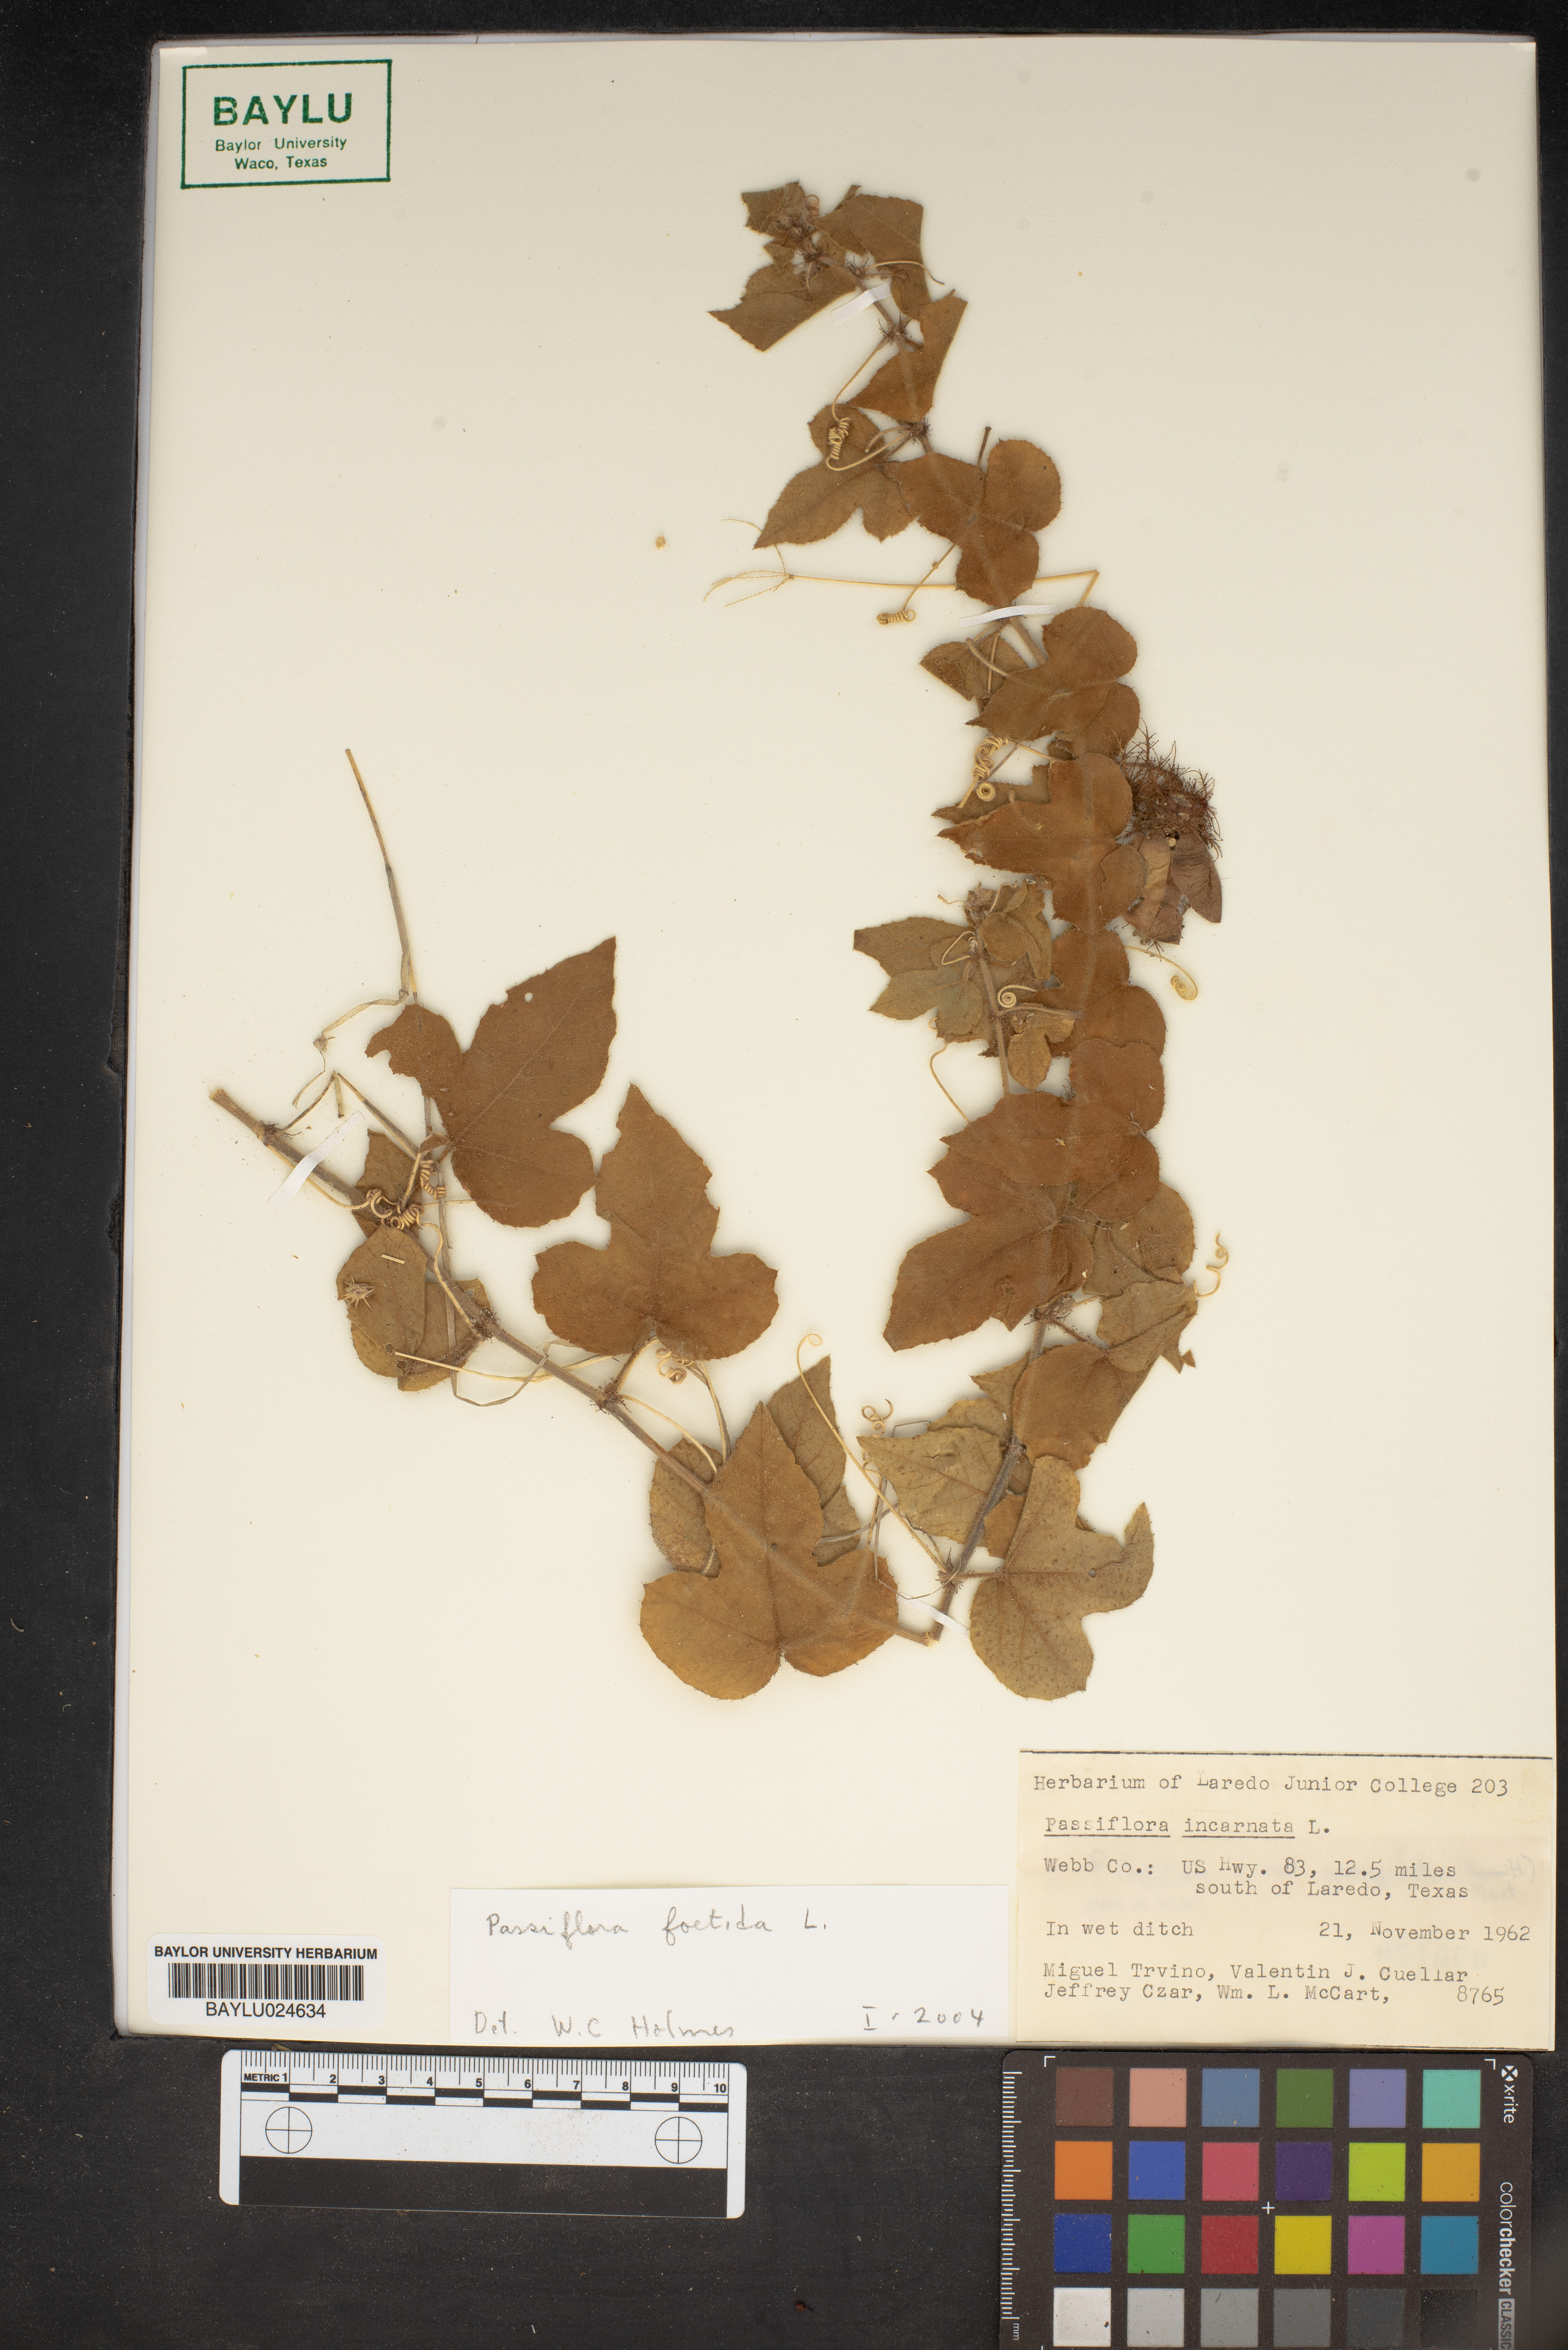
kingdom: Plantae
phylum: Tracheophyta
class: Magnoliopsida
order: Malpighiales
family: Passifloraceae
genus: Passiflora
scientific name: Passiflora foetida
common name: Fetid passionflower
